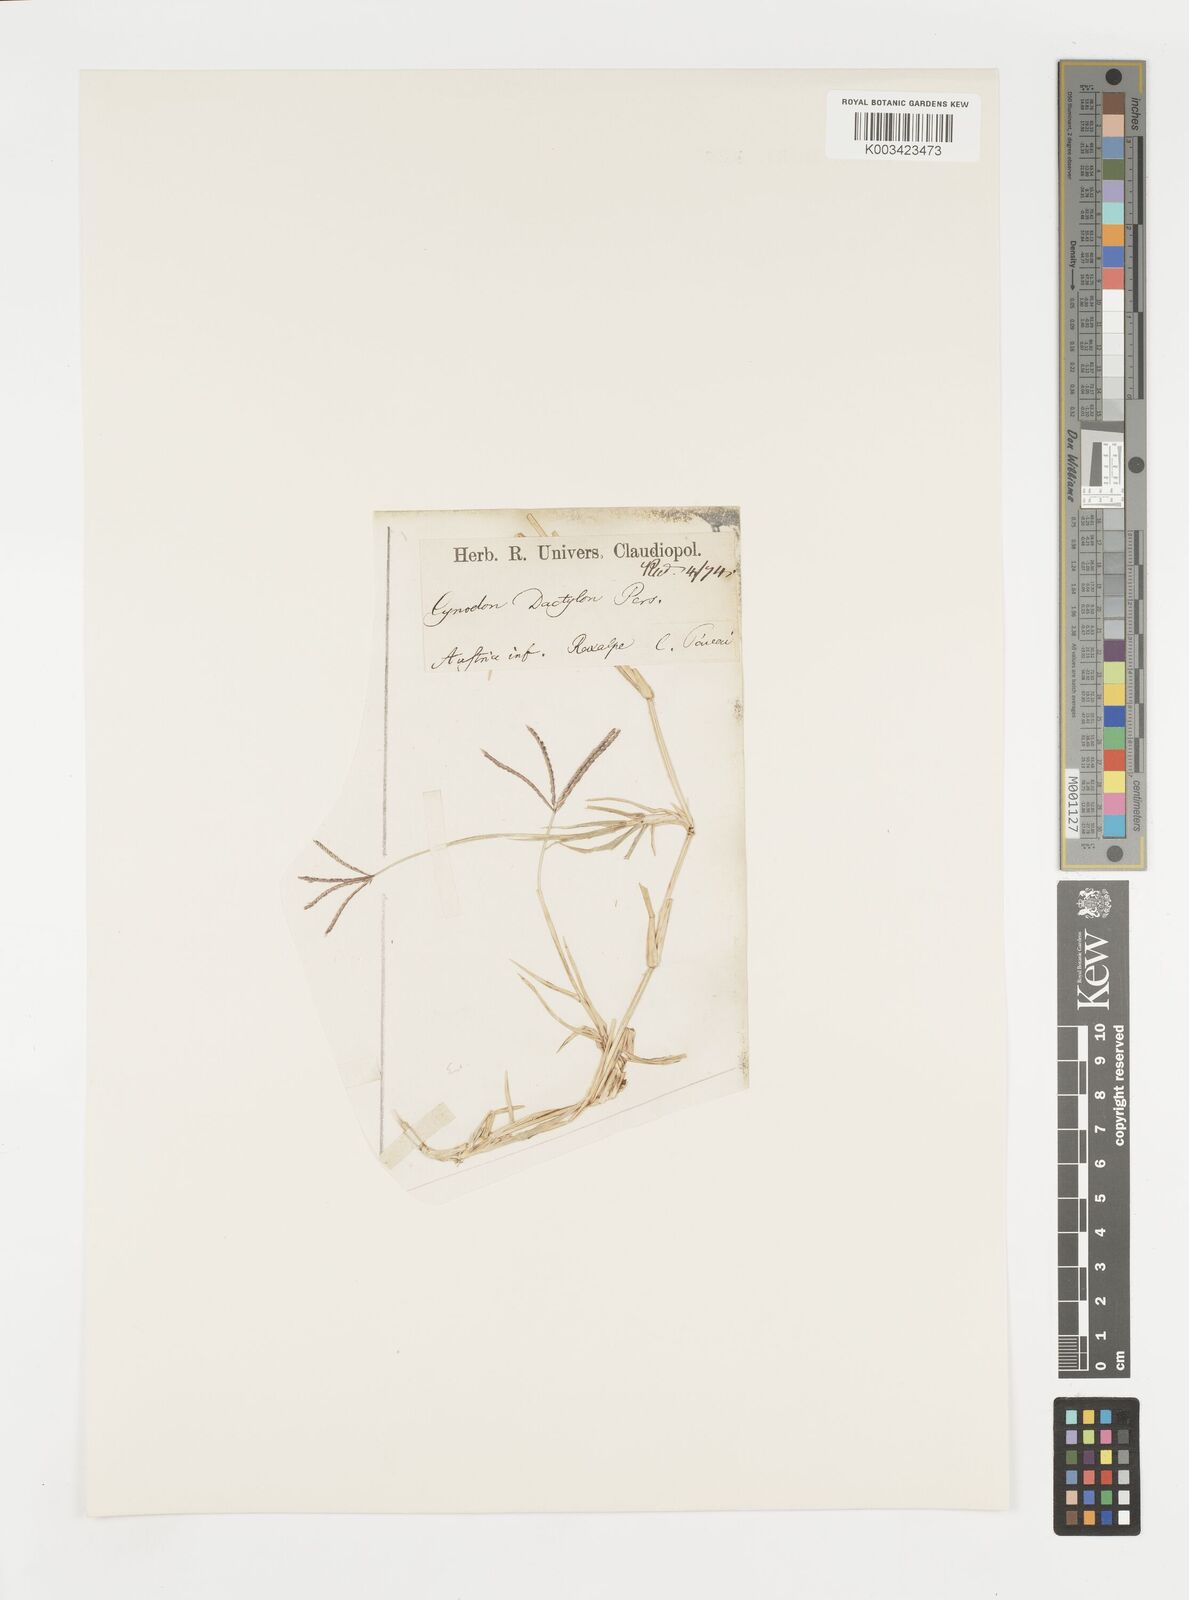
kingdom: Plantae
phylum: Tracheophyta
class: Liliopsida
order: Poales
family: Poaceae
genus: Cynodon
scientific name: Cynodon dactylon
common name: Bermuda grass
